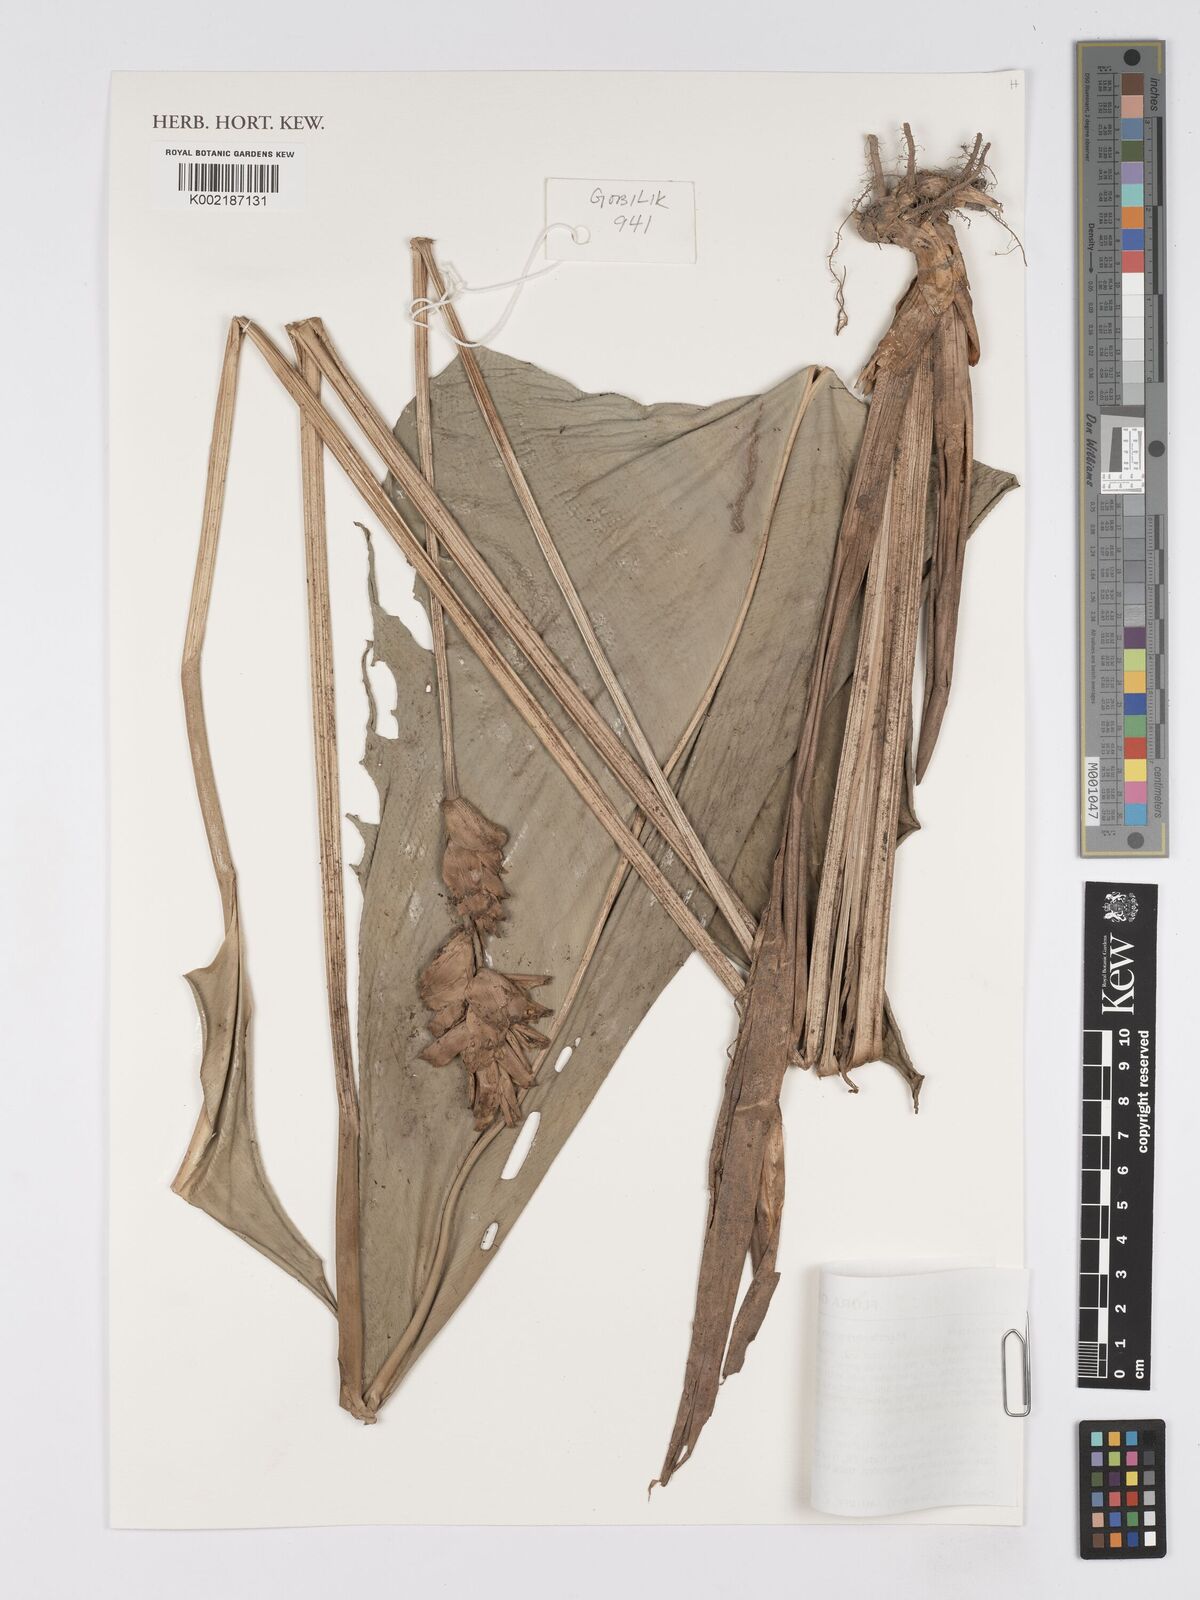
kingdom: Plantae
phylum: Tracheophyta
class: Liliopsida
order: Zingiberales
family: Marantaceae
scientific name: Marantaceae
